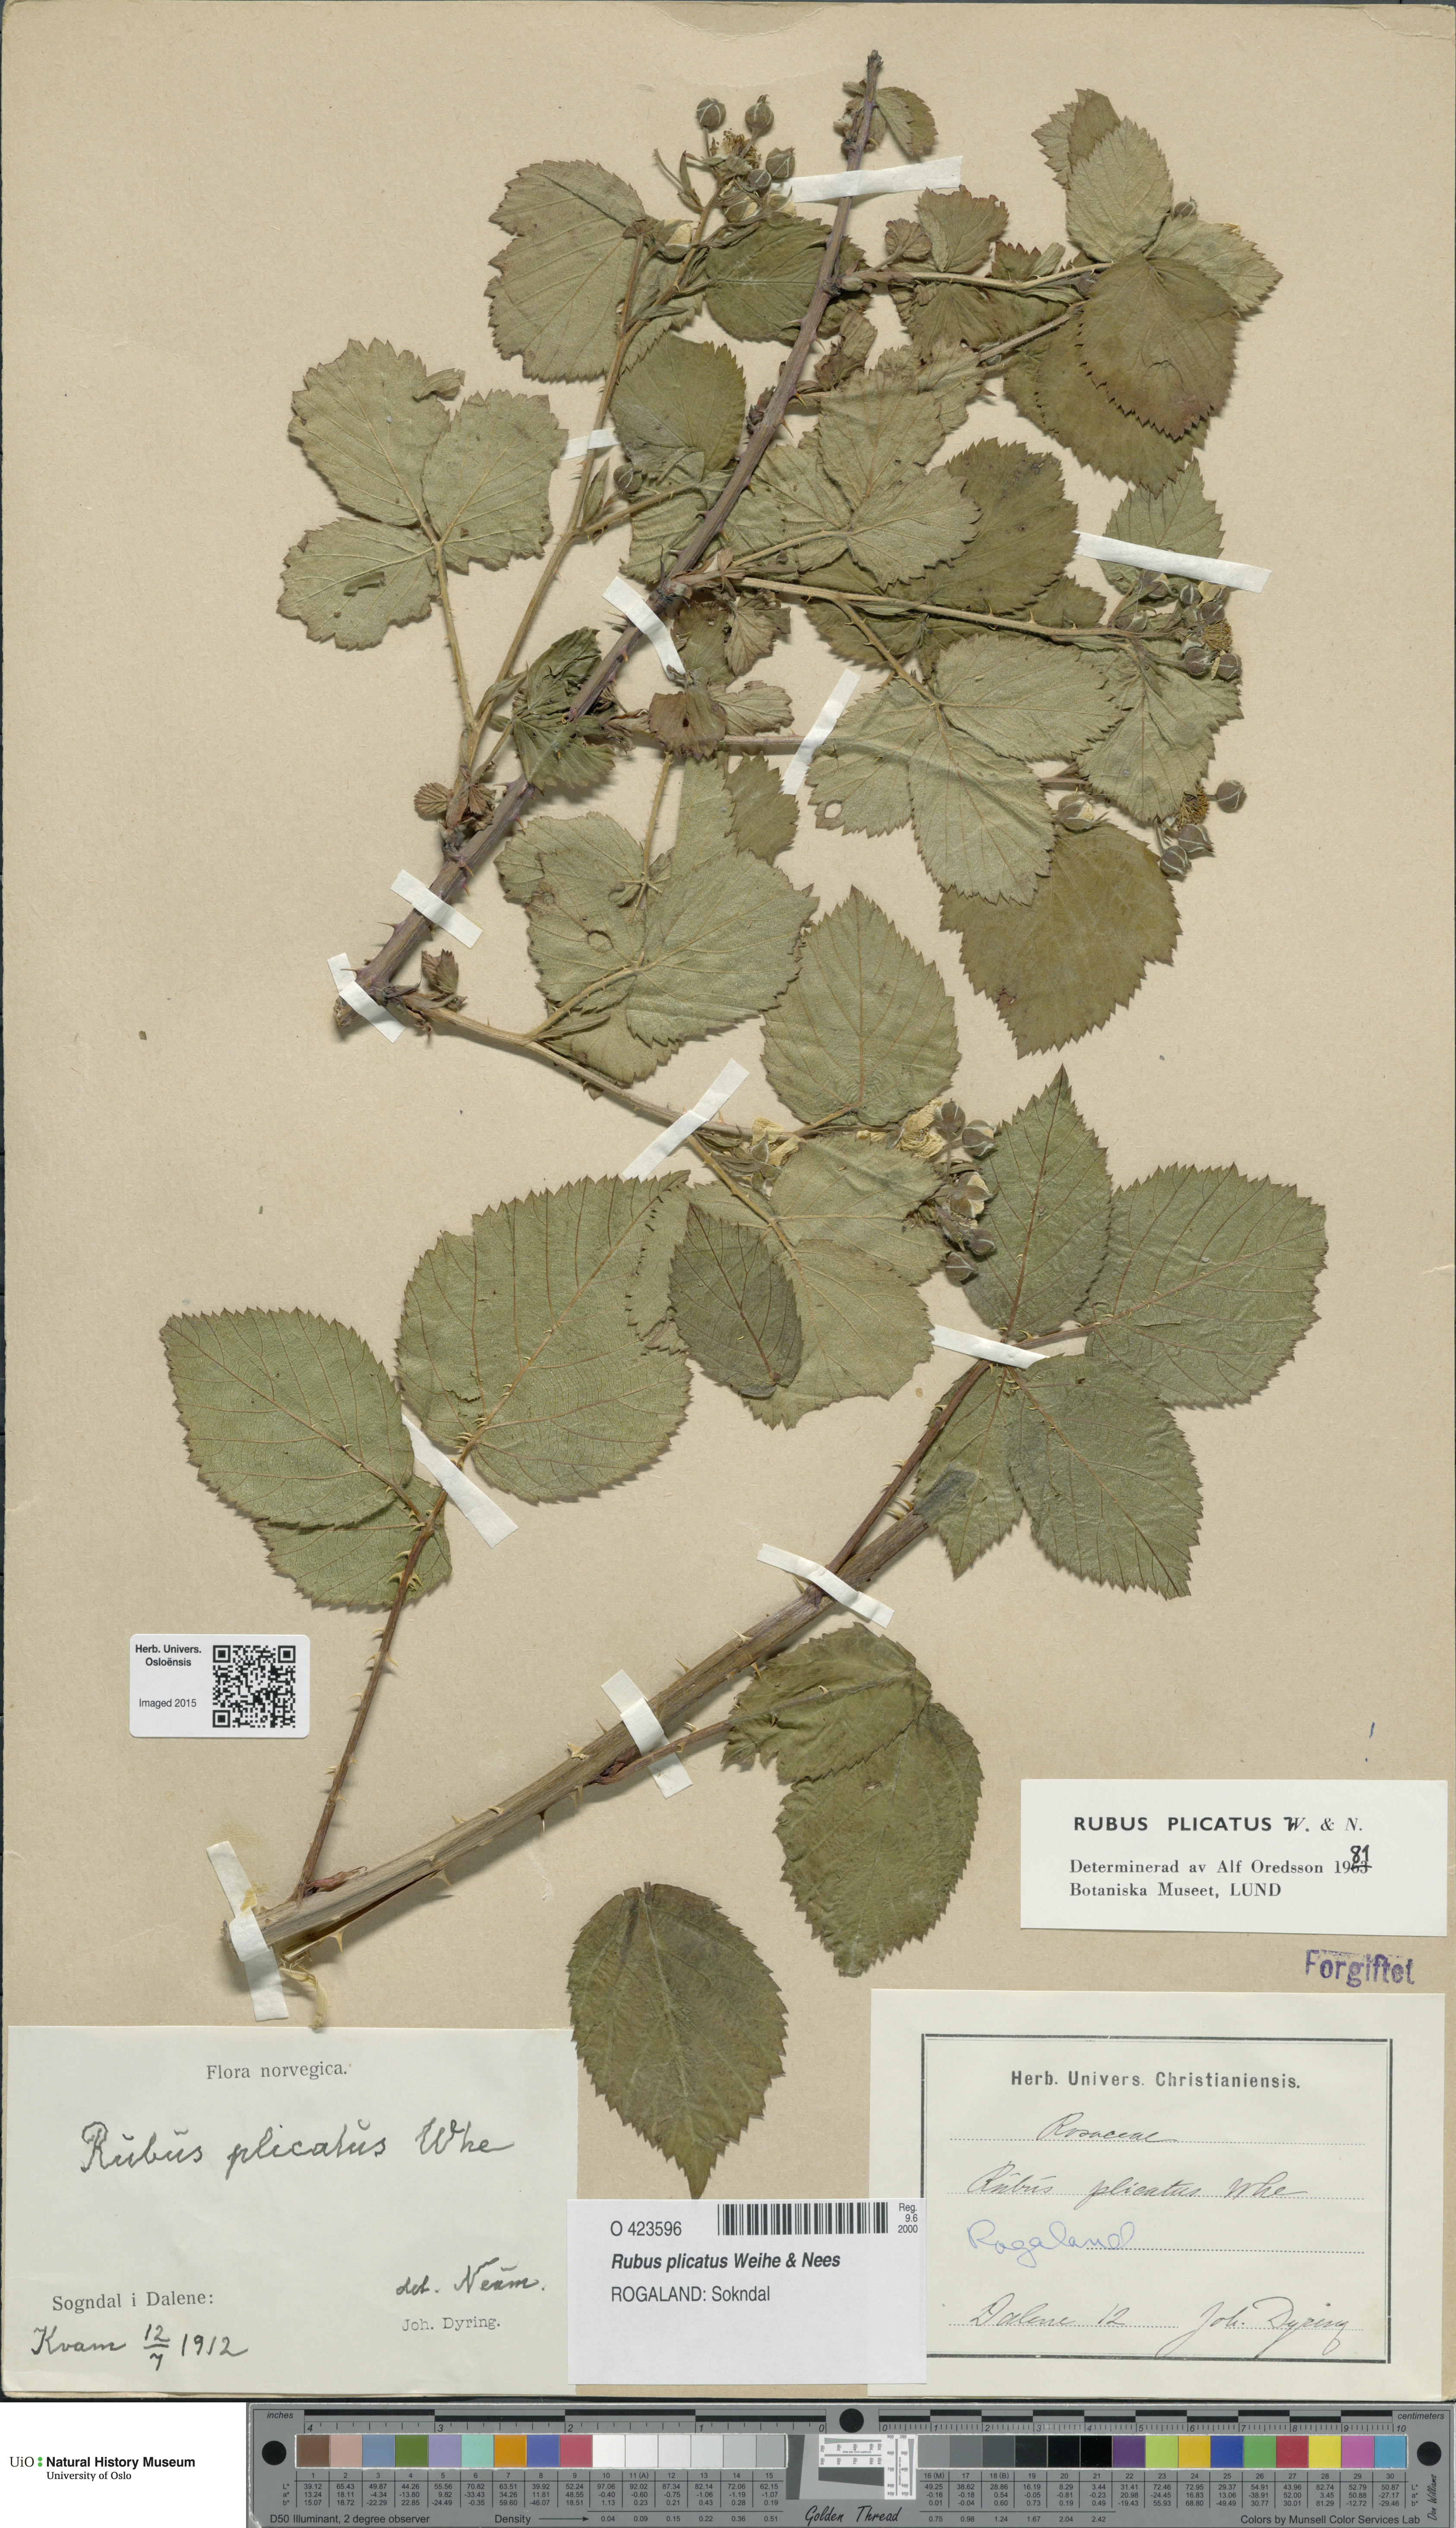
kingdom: Plantae
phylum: Tracheophyta
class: Magnoliopsida
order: Rosales
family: Rosaceae
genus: Rubus
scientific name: Rubus fruticosus
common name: Blackberry, bramble
